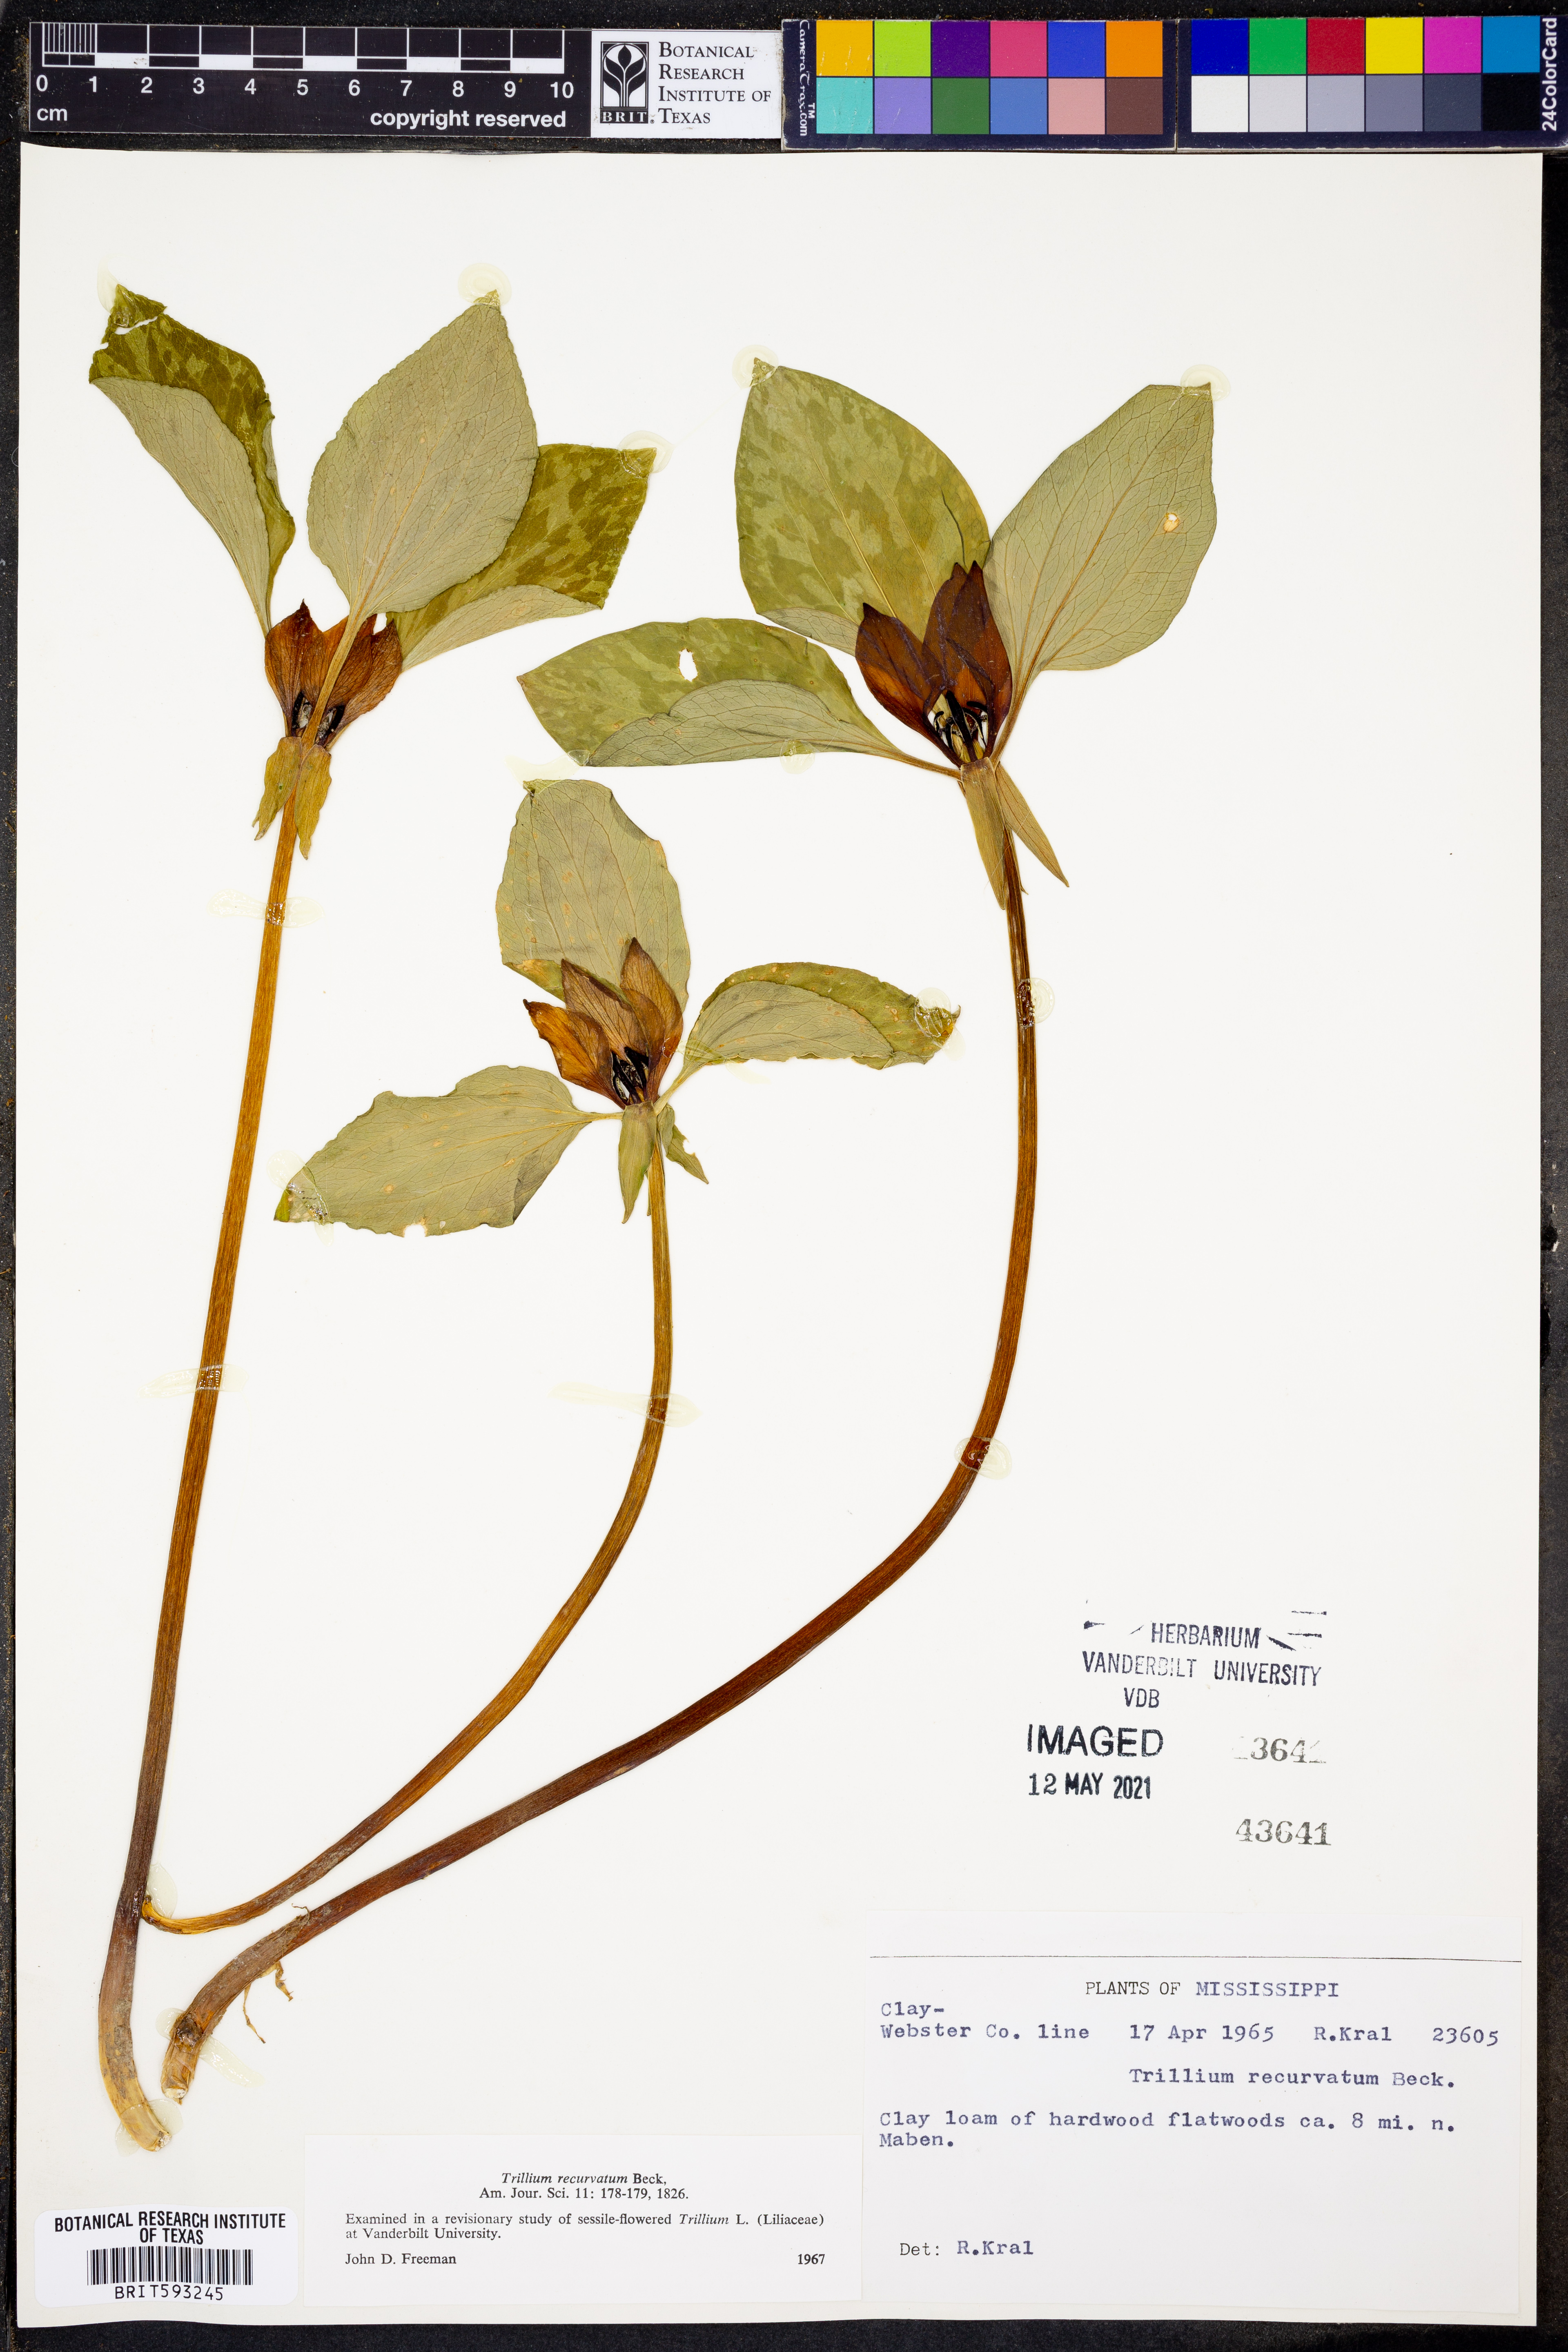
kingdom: Plantae
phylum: Tracheophyta
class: Liliopsida
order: Liliales
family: Melanthiaceae
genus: Trillium
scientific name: Trillium recurvatum
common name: Bloody butcher
